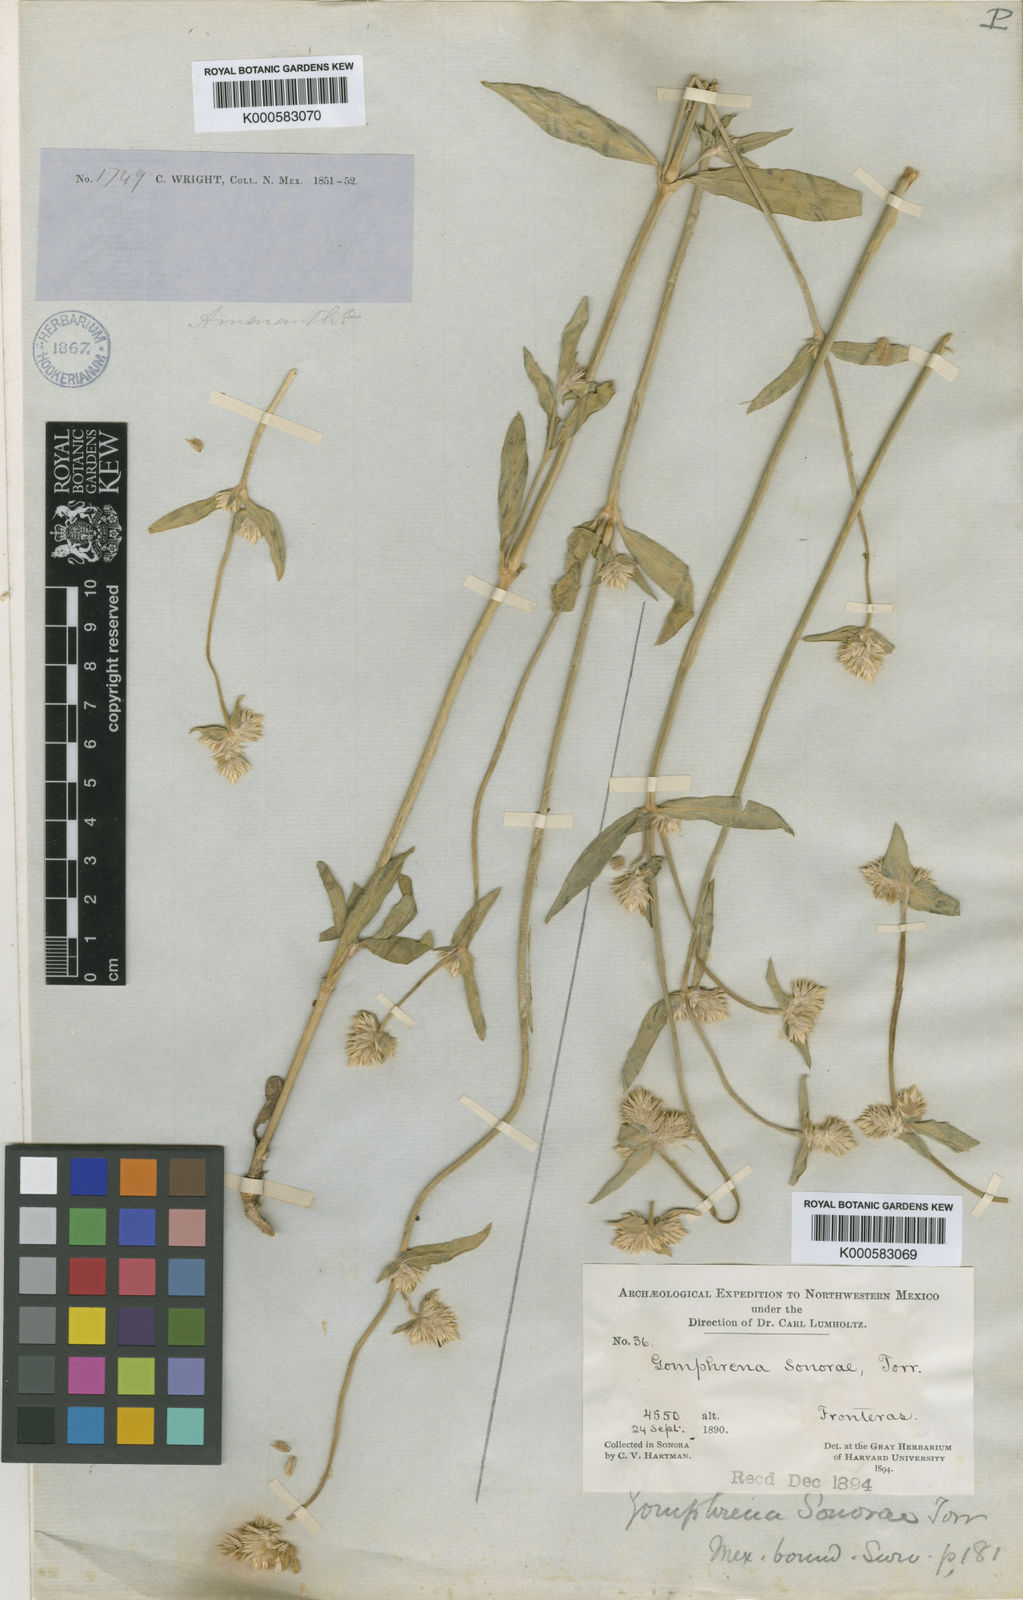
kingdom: Plantae
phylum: Tracheophyta
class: Magnoliopsida
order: Caryophyllales
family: Amaranthaceae
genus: Gomphrena
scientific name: Gomphrena sonorae
